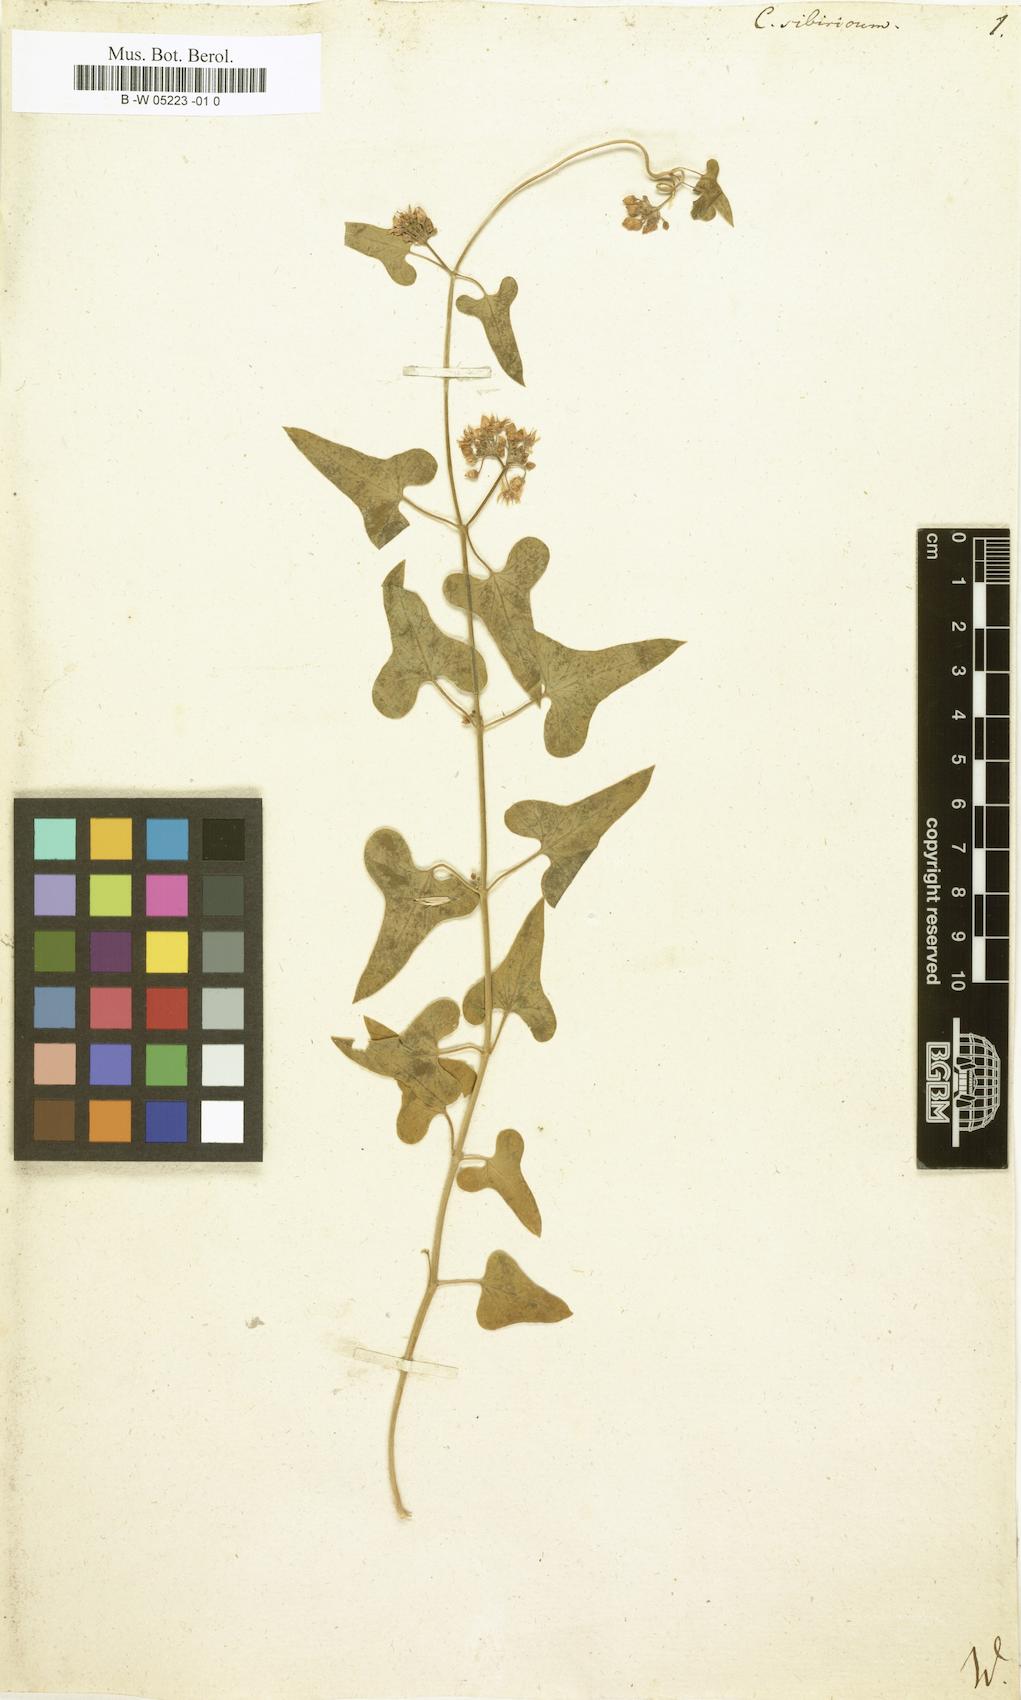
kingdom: Plantae
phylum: Tracheophyta
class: Magnoliopsida
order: Gentianales
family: Apocynaceae
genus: Cynanchum
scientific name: Cynanchum
